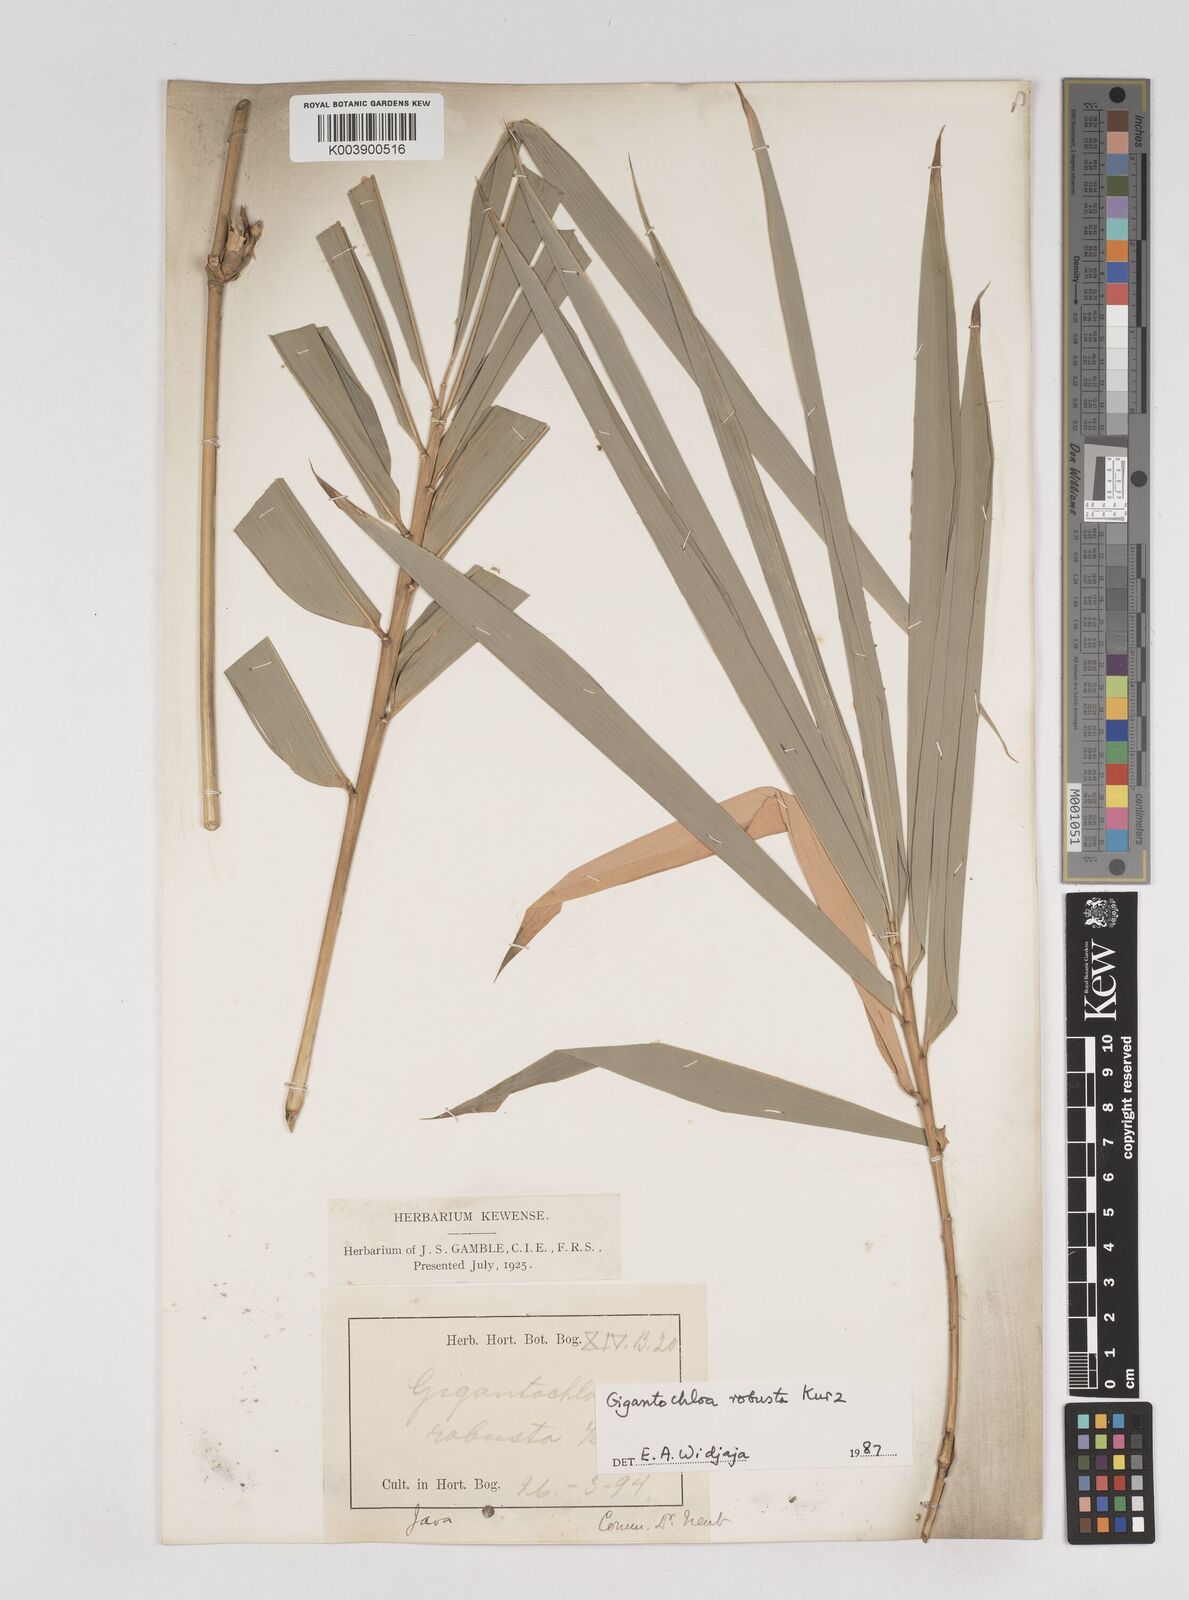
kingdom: Plantae
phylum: Tracheophyta
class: Liliopsida
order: Poales
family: Poaceae
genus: Gigantochloa
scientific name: Gigantochloa robusta
